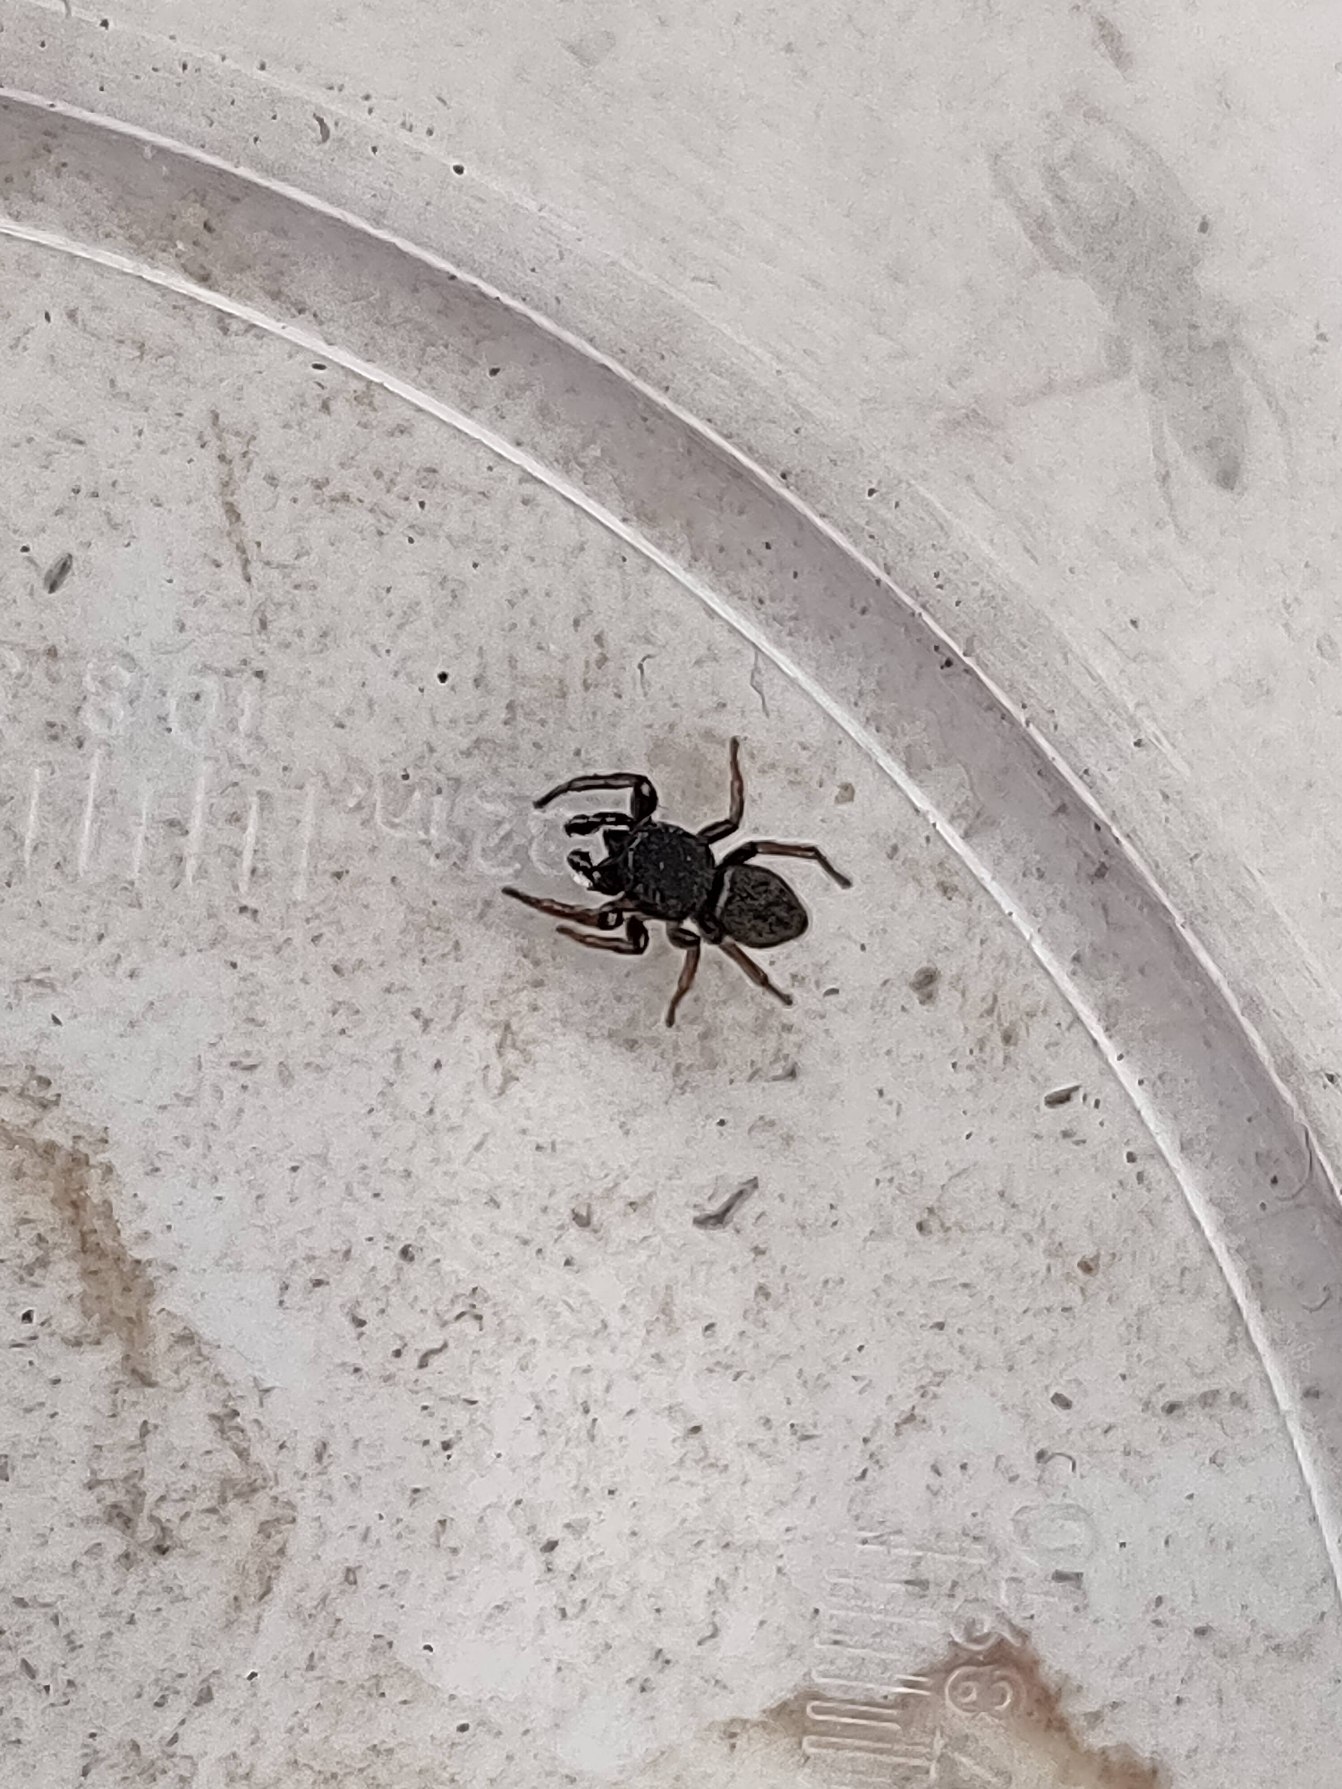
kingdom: Animalia
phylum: Arthropoda
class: Arachnida
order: Araneae
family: Salticidae
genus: Heliophanus
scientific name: Heliophanus flavipes
